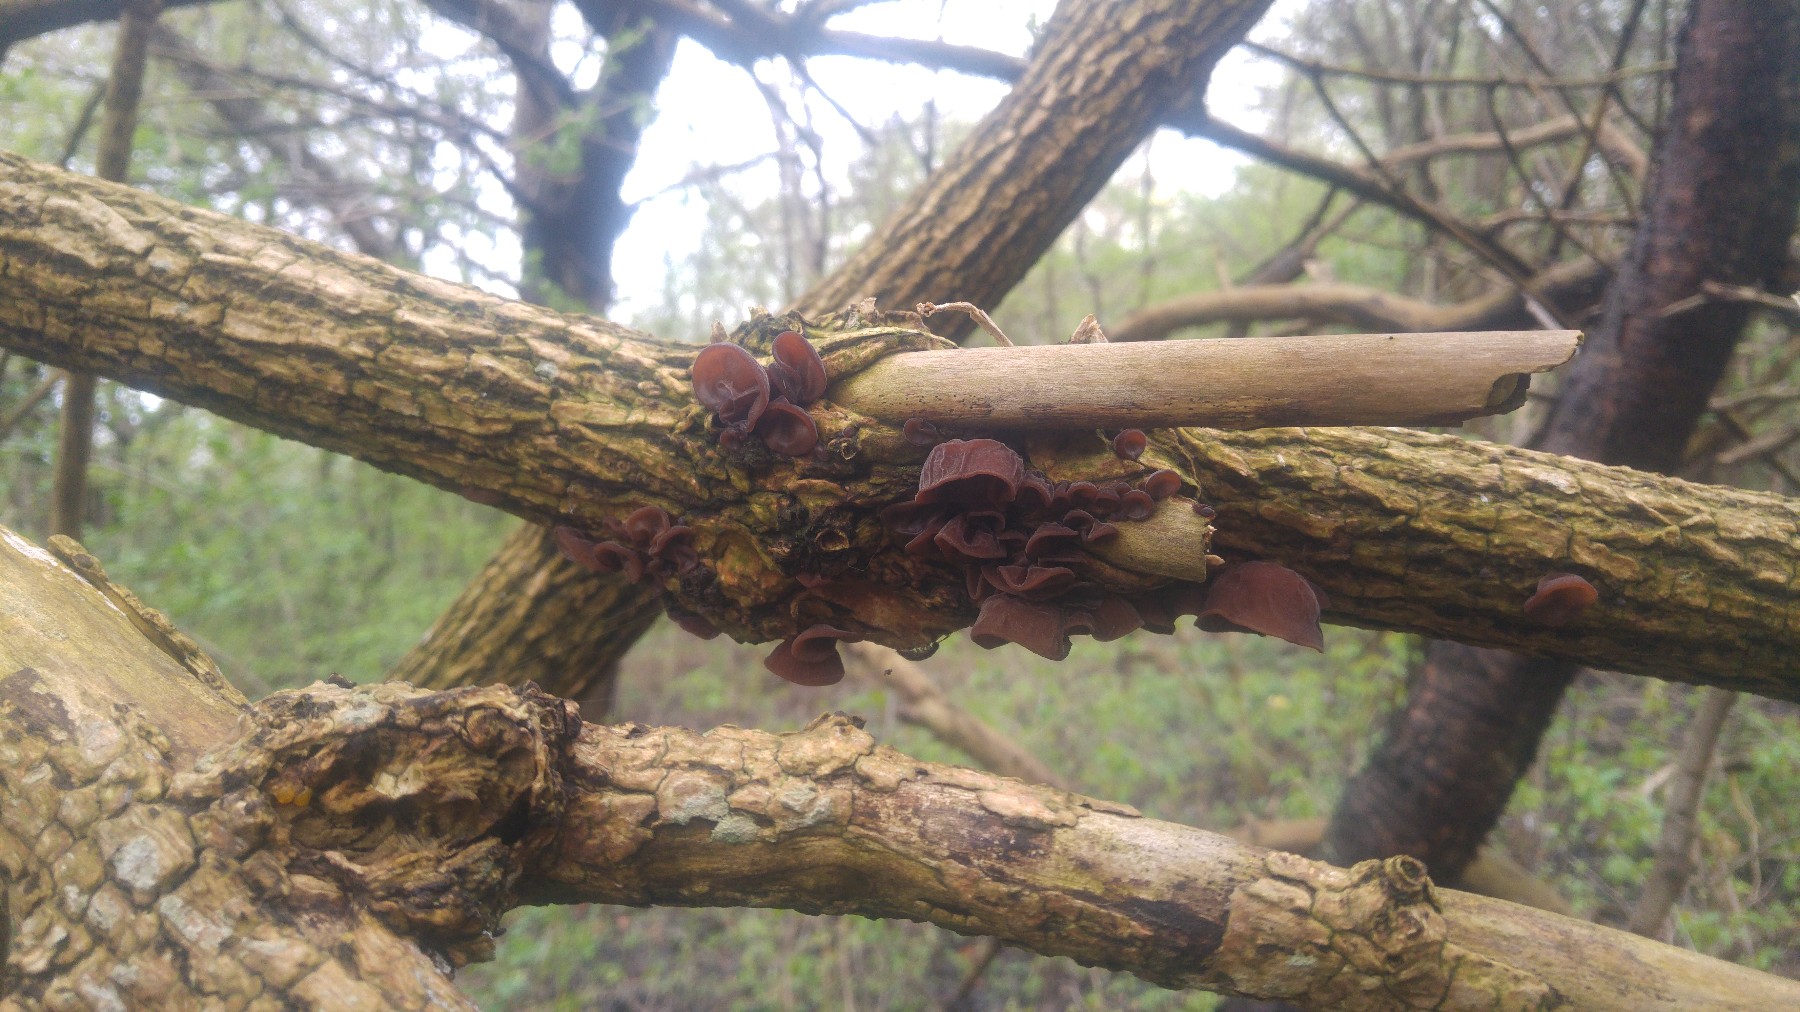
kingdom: Fungi
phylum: Basidiomycota
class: Agaricomycetes
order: Auriculariales
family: Auriculariaceae
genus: Auricularia
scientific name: Auricularia auricula-judae
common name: almindelig judasøre
